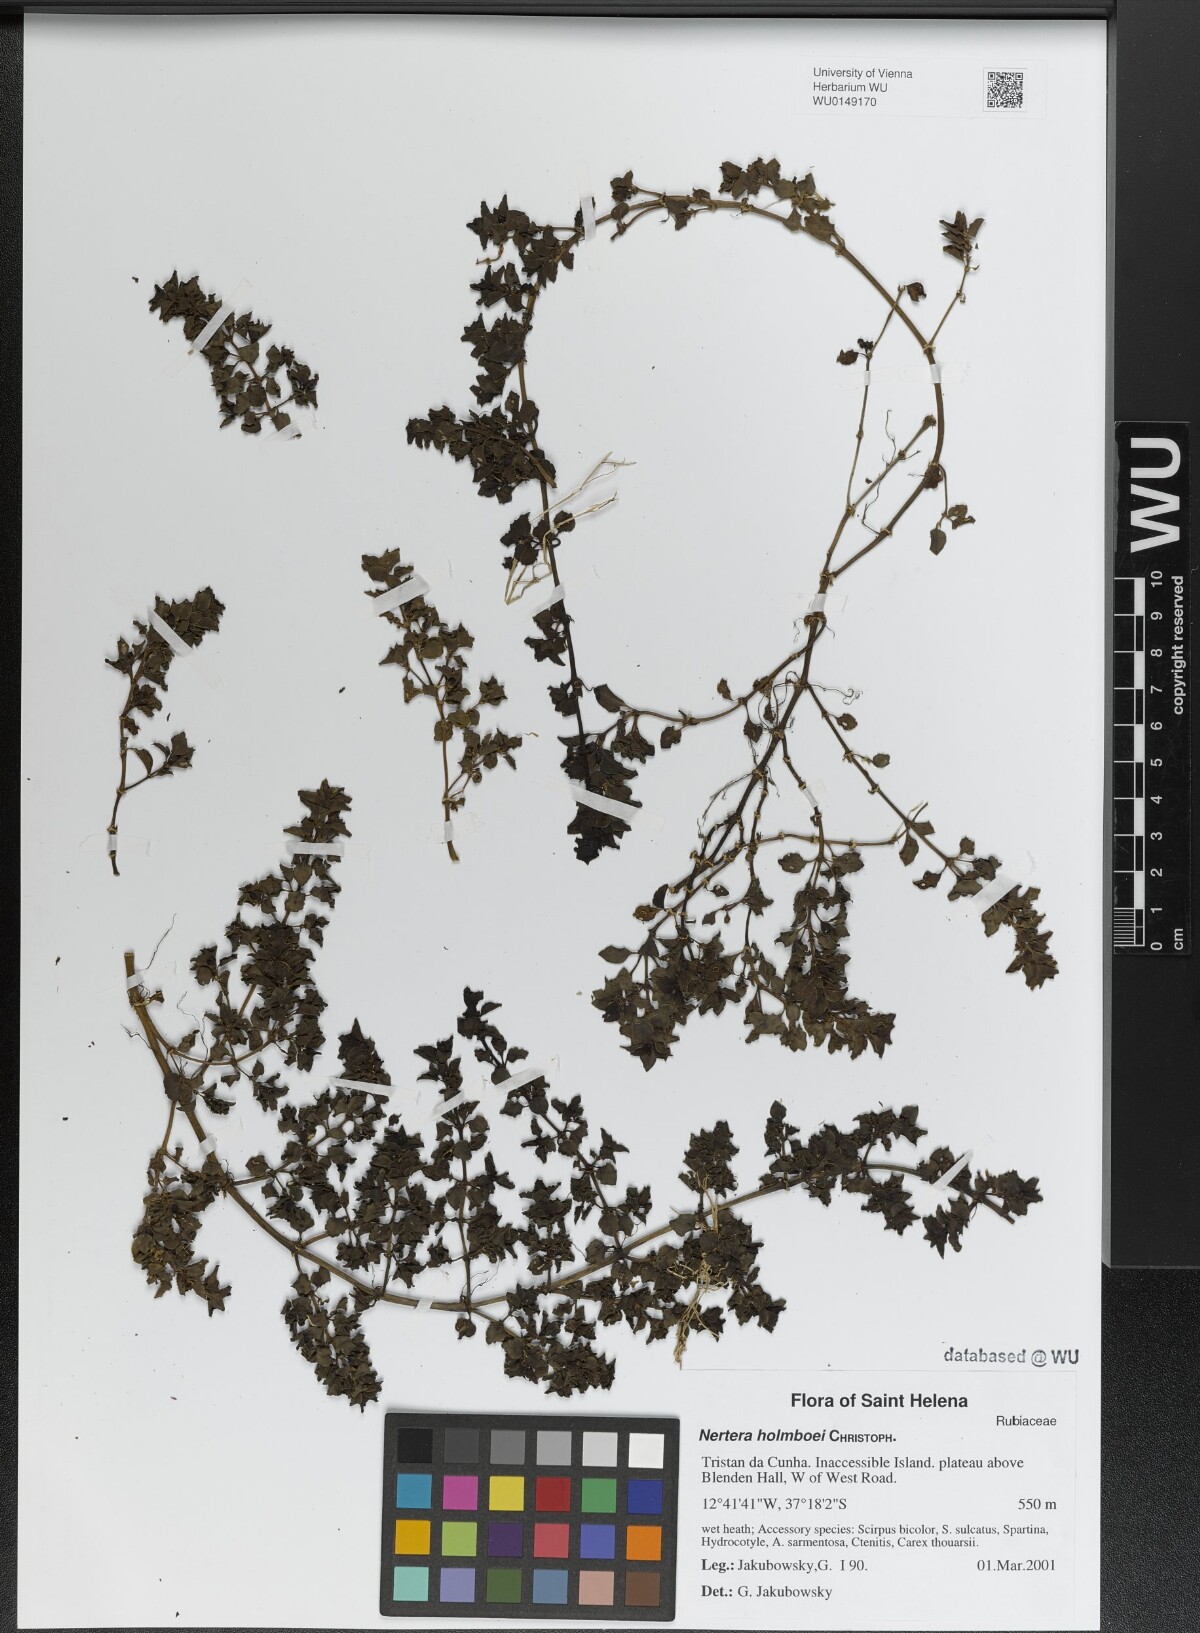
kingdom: Plantae
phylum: Tracheophyta
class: Magnoliopsida
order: Gentianales
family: Rubiaceae
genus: Nertera
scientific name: Nertera holmboei
